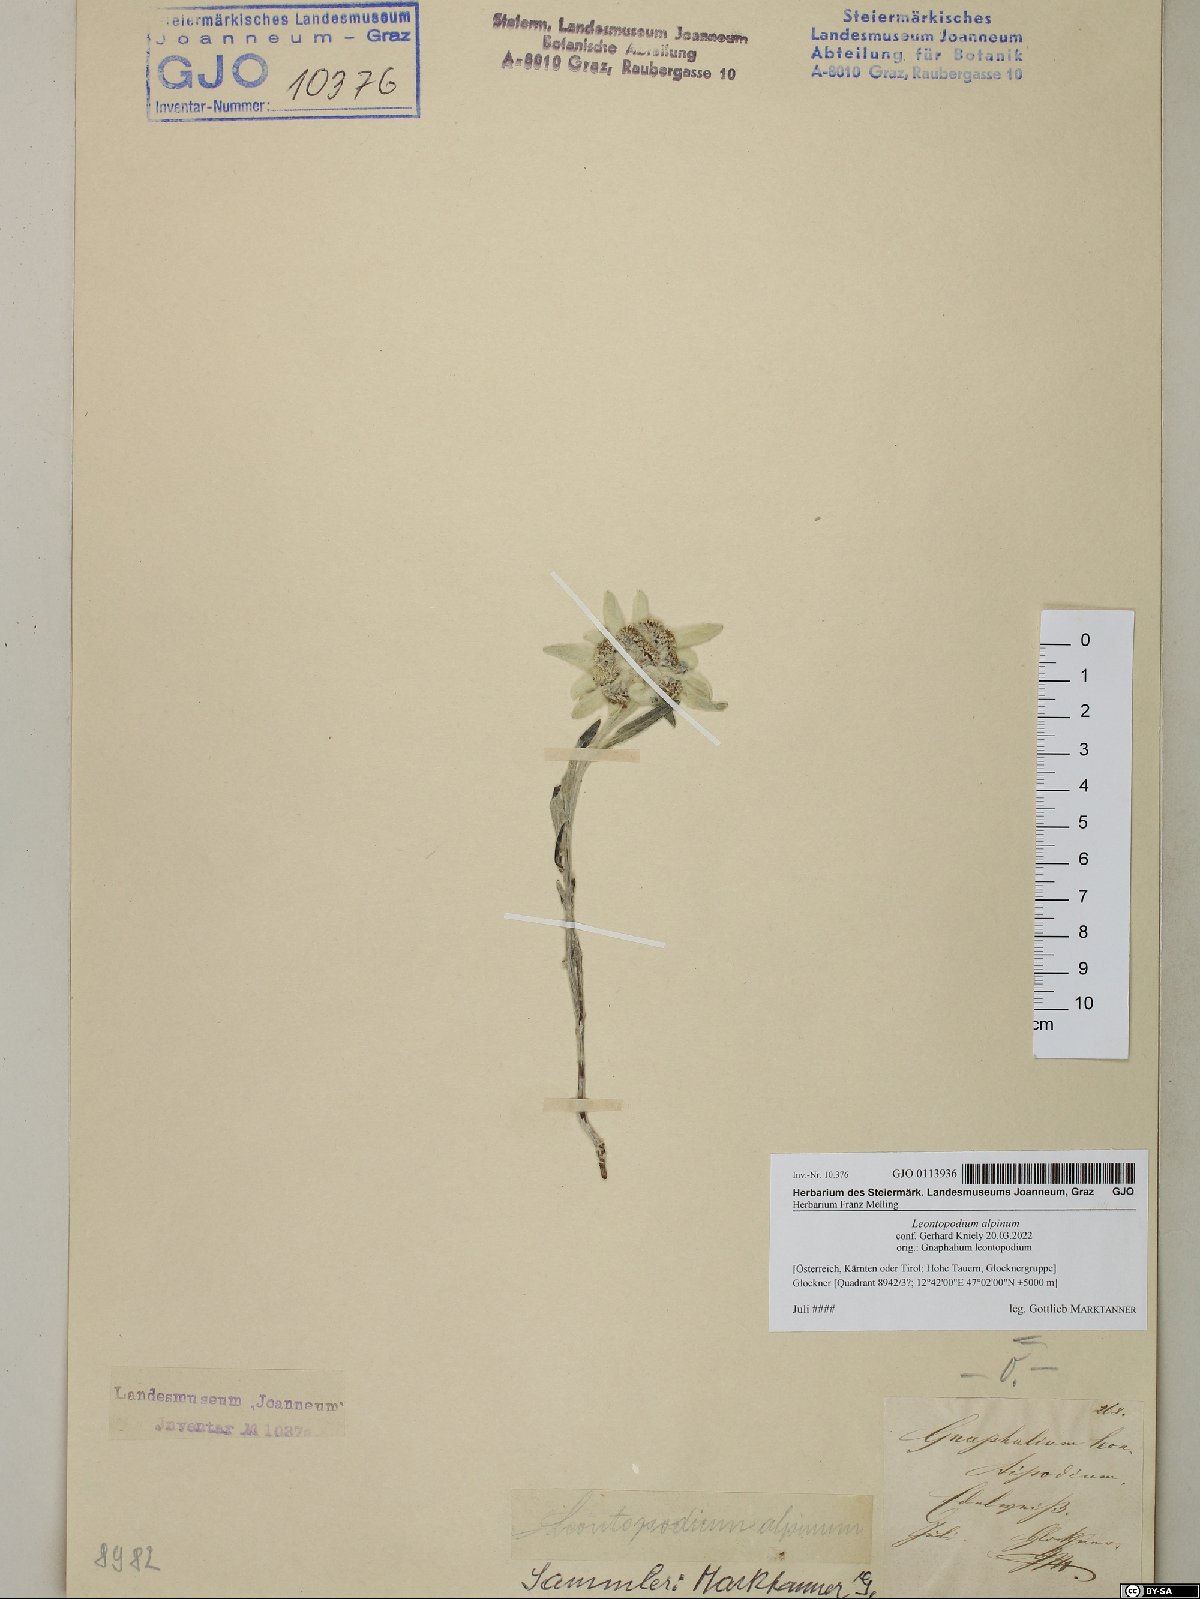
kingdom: Plantae
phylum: Tracheophyta
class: Magnoliopsida
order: Asterales
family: Asteraceae
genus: Leontopodium
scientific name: Leontopodium nivale
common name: Edelweiss
